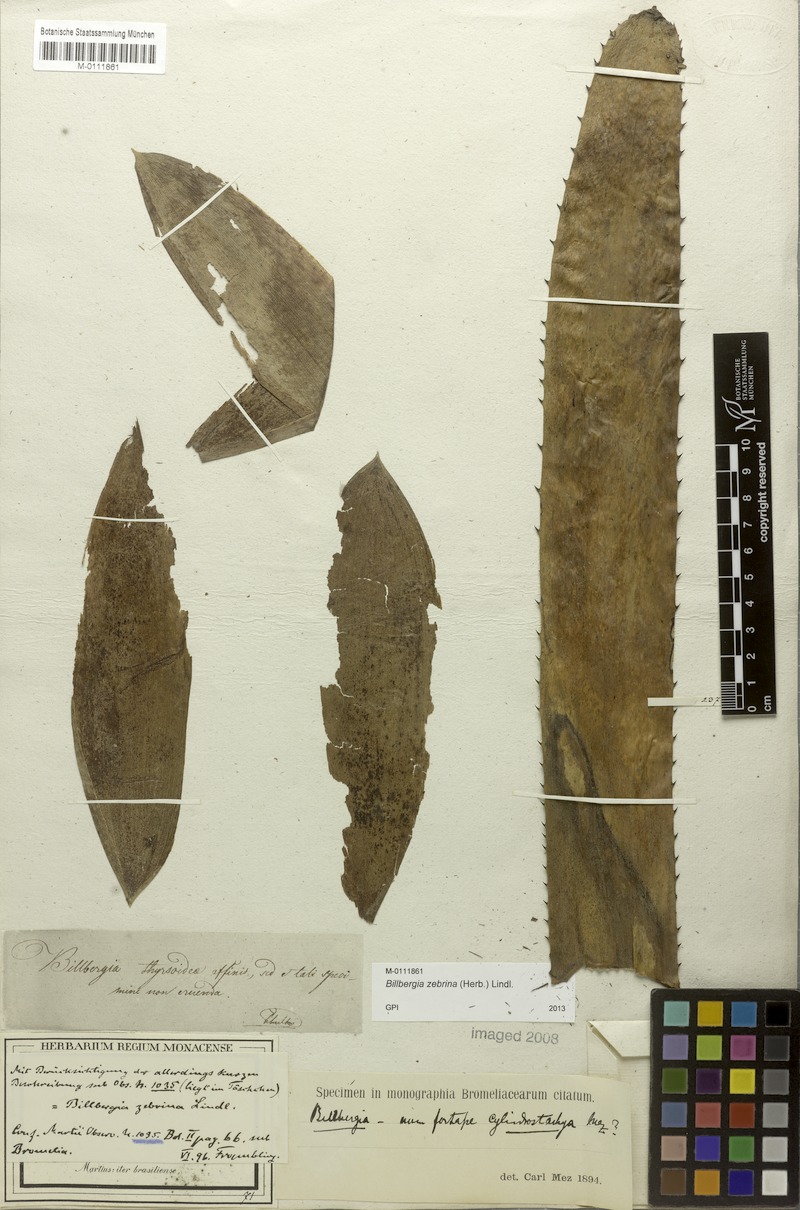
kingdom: Plantae
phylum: Tracheophyta
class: Liliopsida
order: Poales
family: Bromeliaceae
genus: Billbergia
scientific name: Billbergia zebrina
